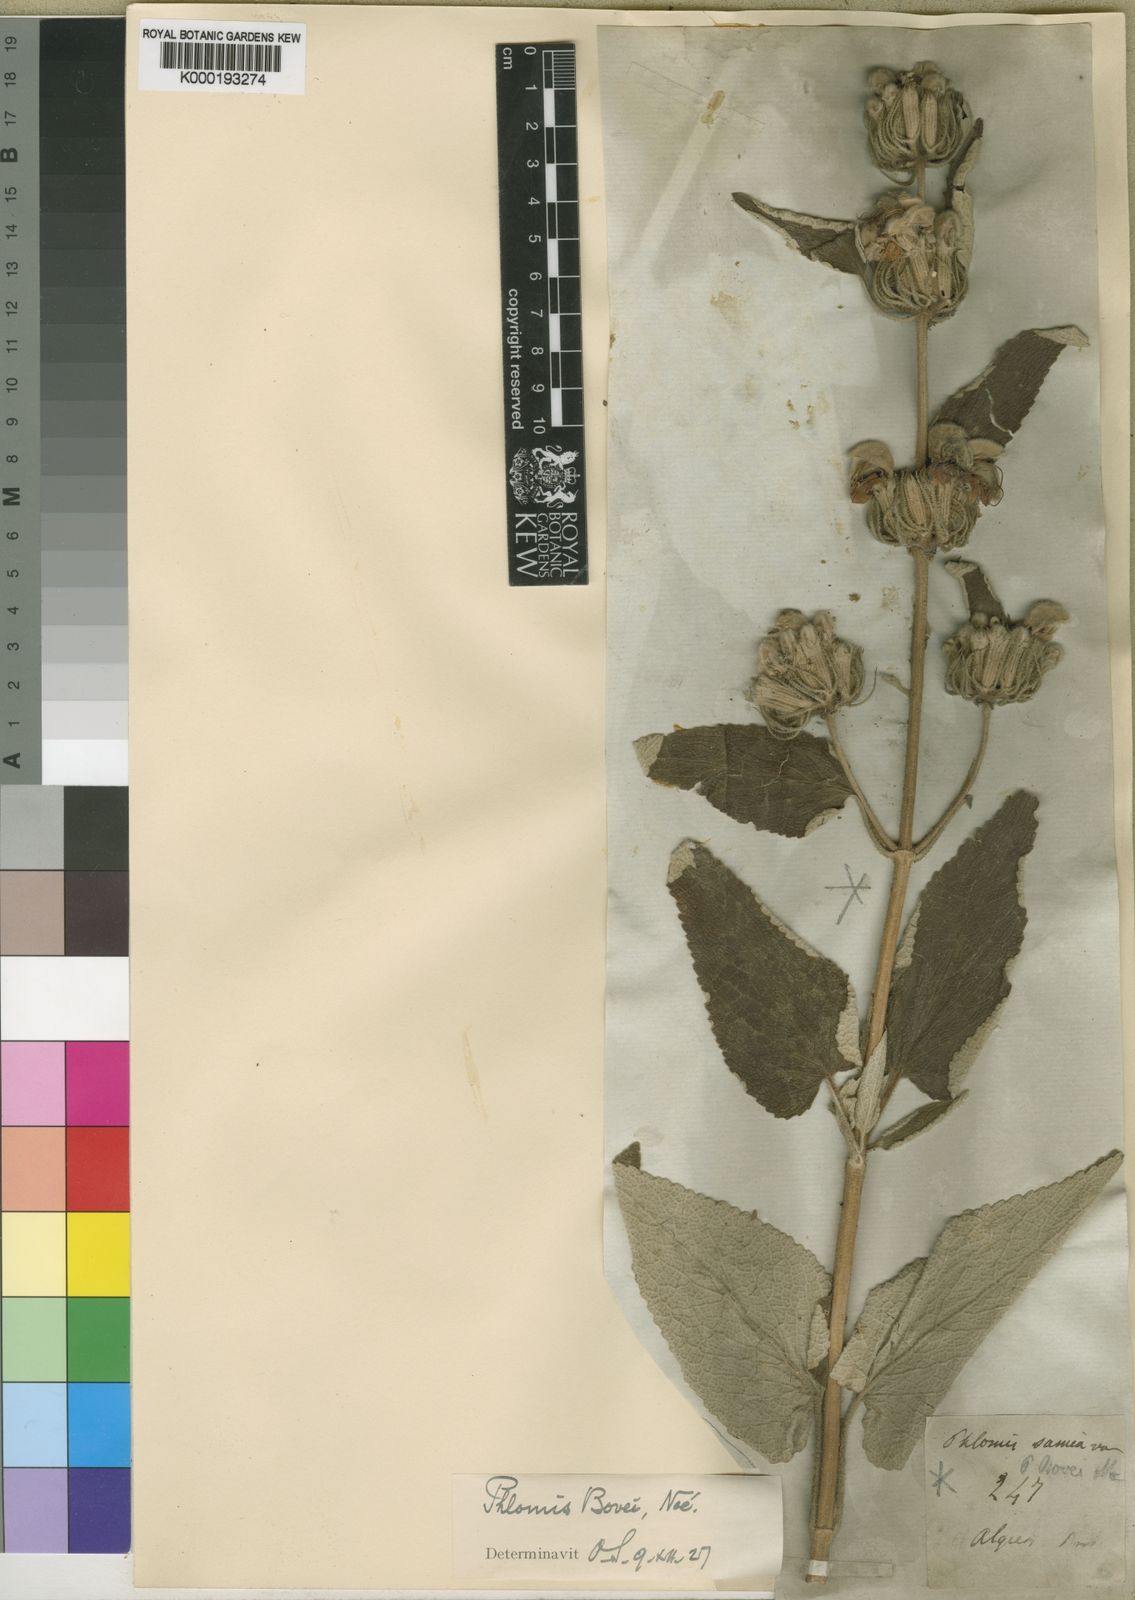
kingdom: Plantae
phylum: Tracheophyta
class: Magnoliopsida
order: Lamiales
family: Lamiaceae
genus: Phlomis
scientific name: Phlomis
